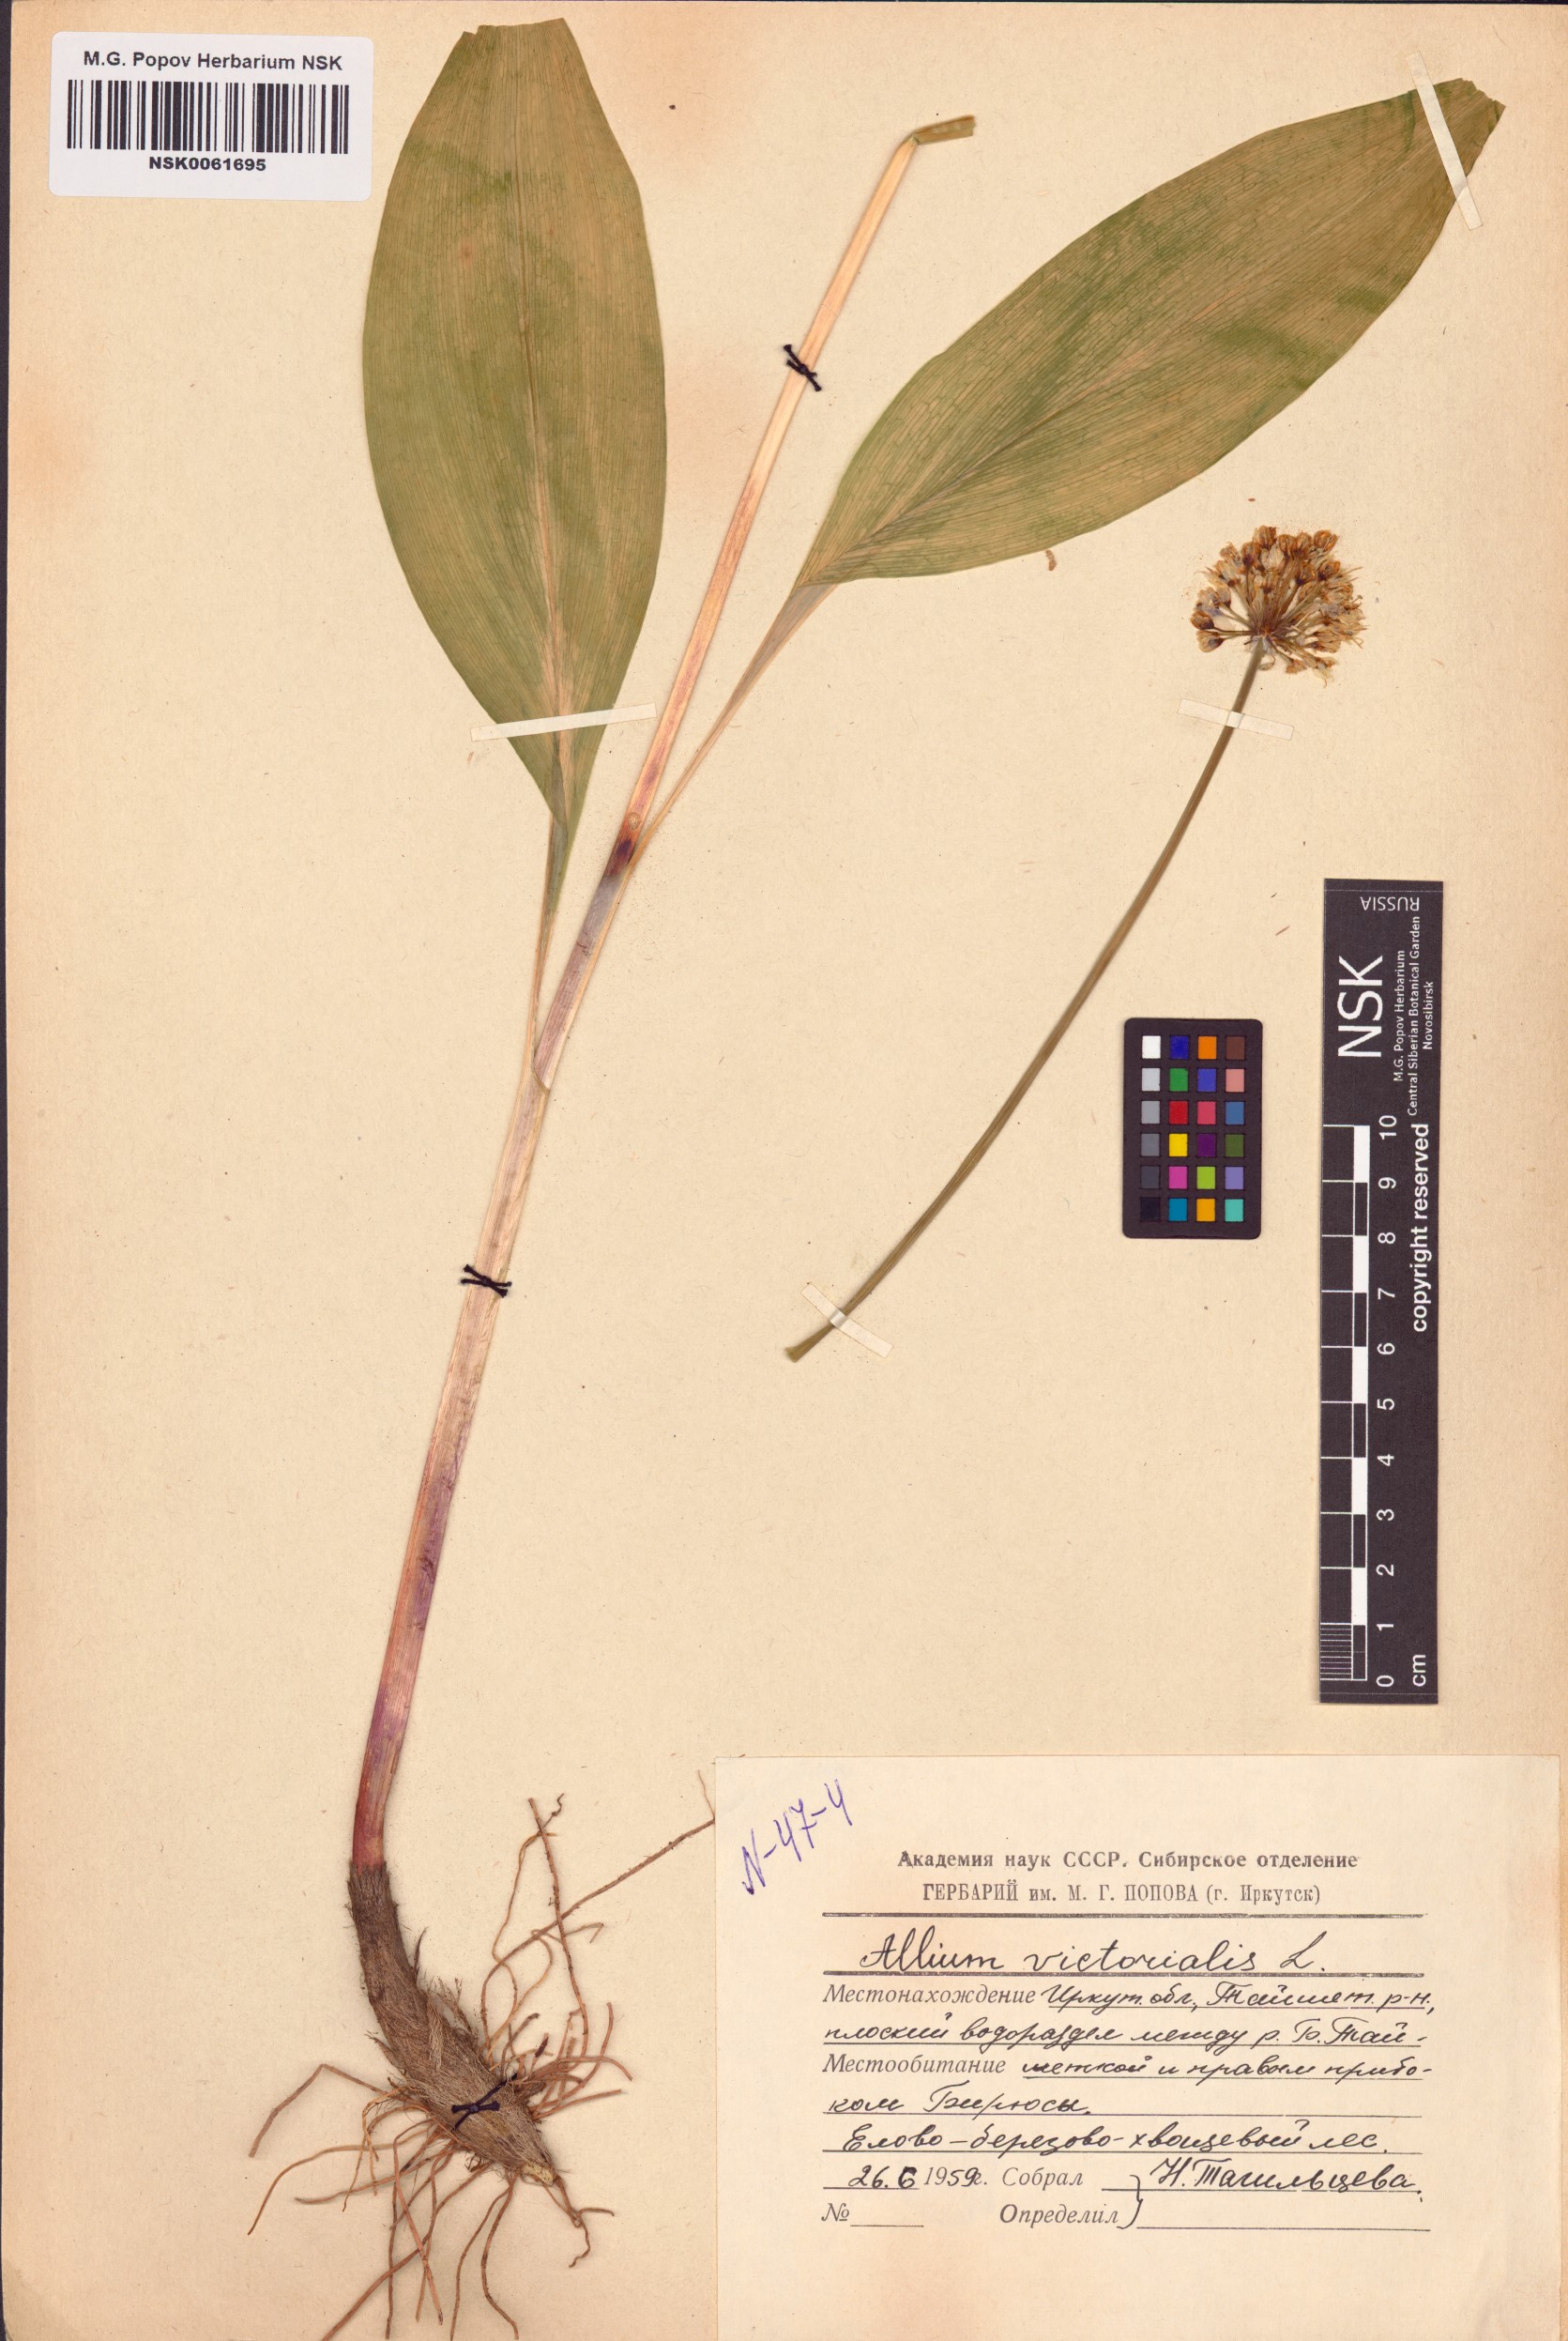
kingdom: Plantae
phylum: Tracheophyta
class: Liliopsida
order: Asparagales
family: Amaryllidaceae
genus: Allium
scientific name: Allium victorialis
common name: Alpine leek
